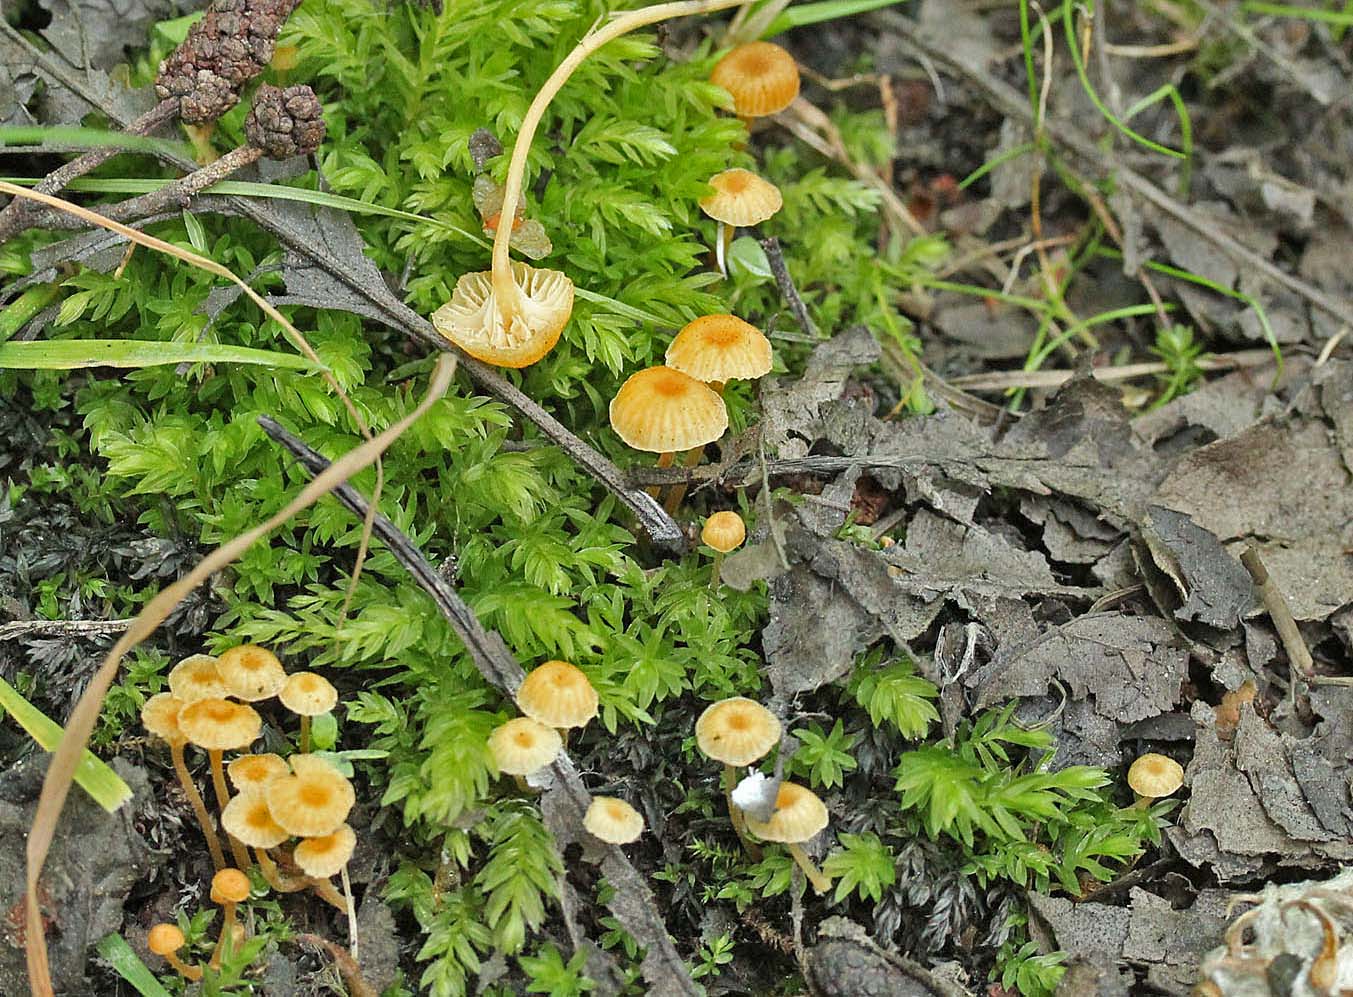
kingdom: Fungi
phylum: Basidiomycota
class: Agaricomycetes
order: Hymenochaetales
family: Rickenellaceae
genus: Rickenella
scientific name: Rickenella fibula
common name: orange mosnavlehat
